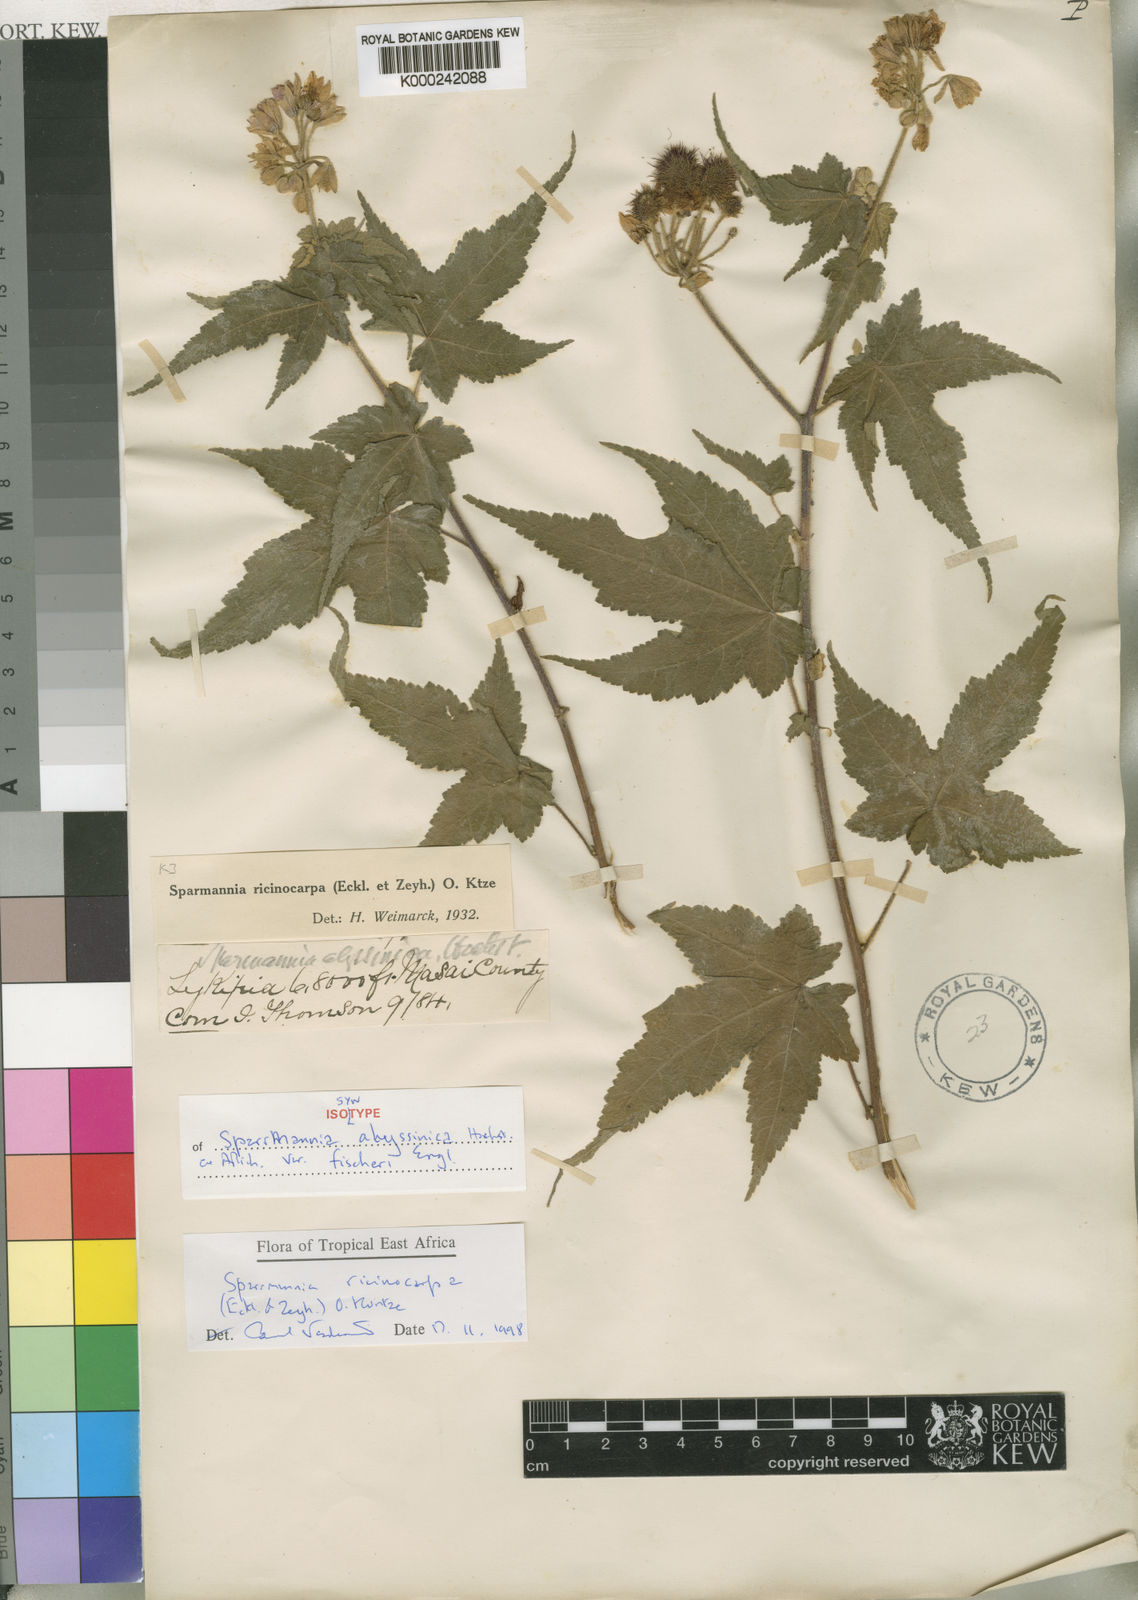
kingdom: Plantae
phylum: Tracheophyta
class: Magnoliopsida
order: Malvales
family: Malvaceae
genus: Sparmannia
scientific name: Sparmannia
